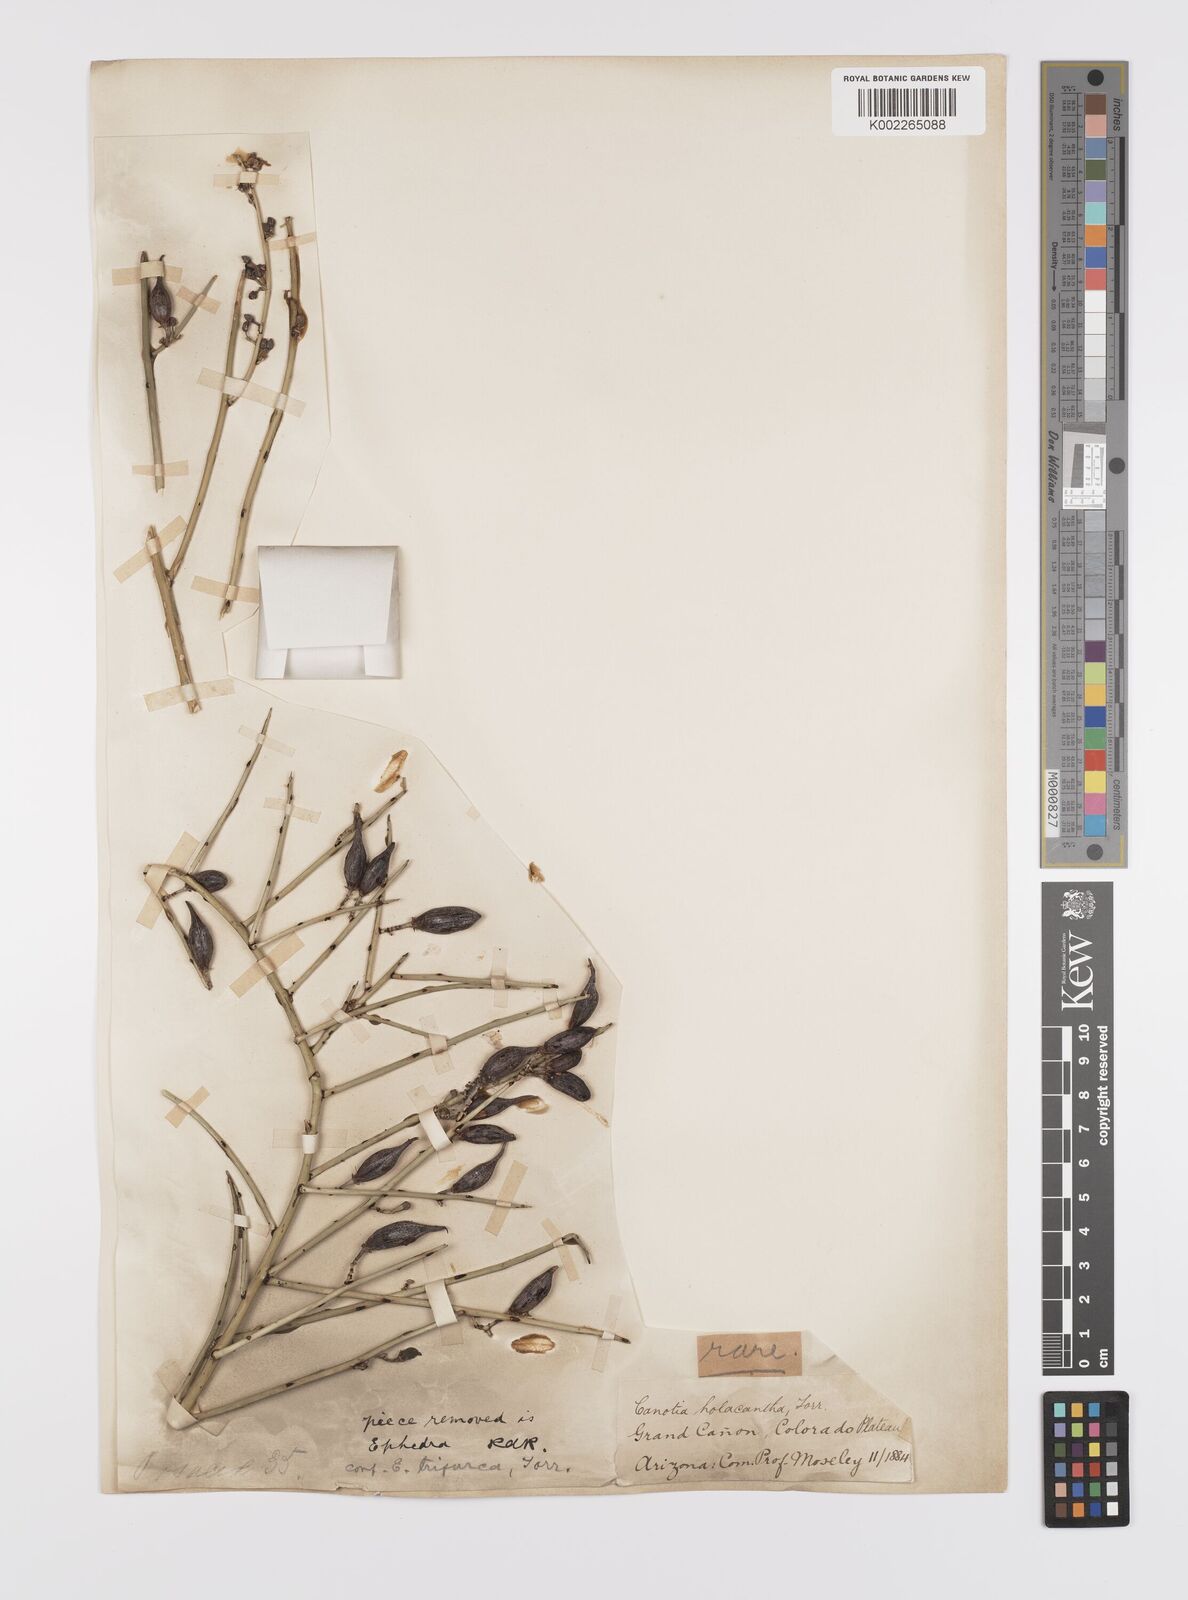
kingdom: Plantae
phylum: Tracheophyta
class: Magnoliopsida
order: Celastrales
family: Celastraceae
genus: Canotia
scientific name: Canotia holacantha
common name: Crucifixion thorns
